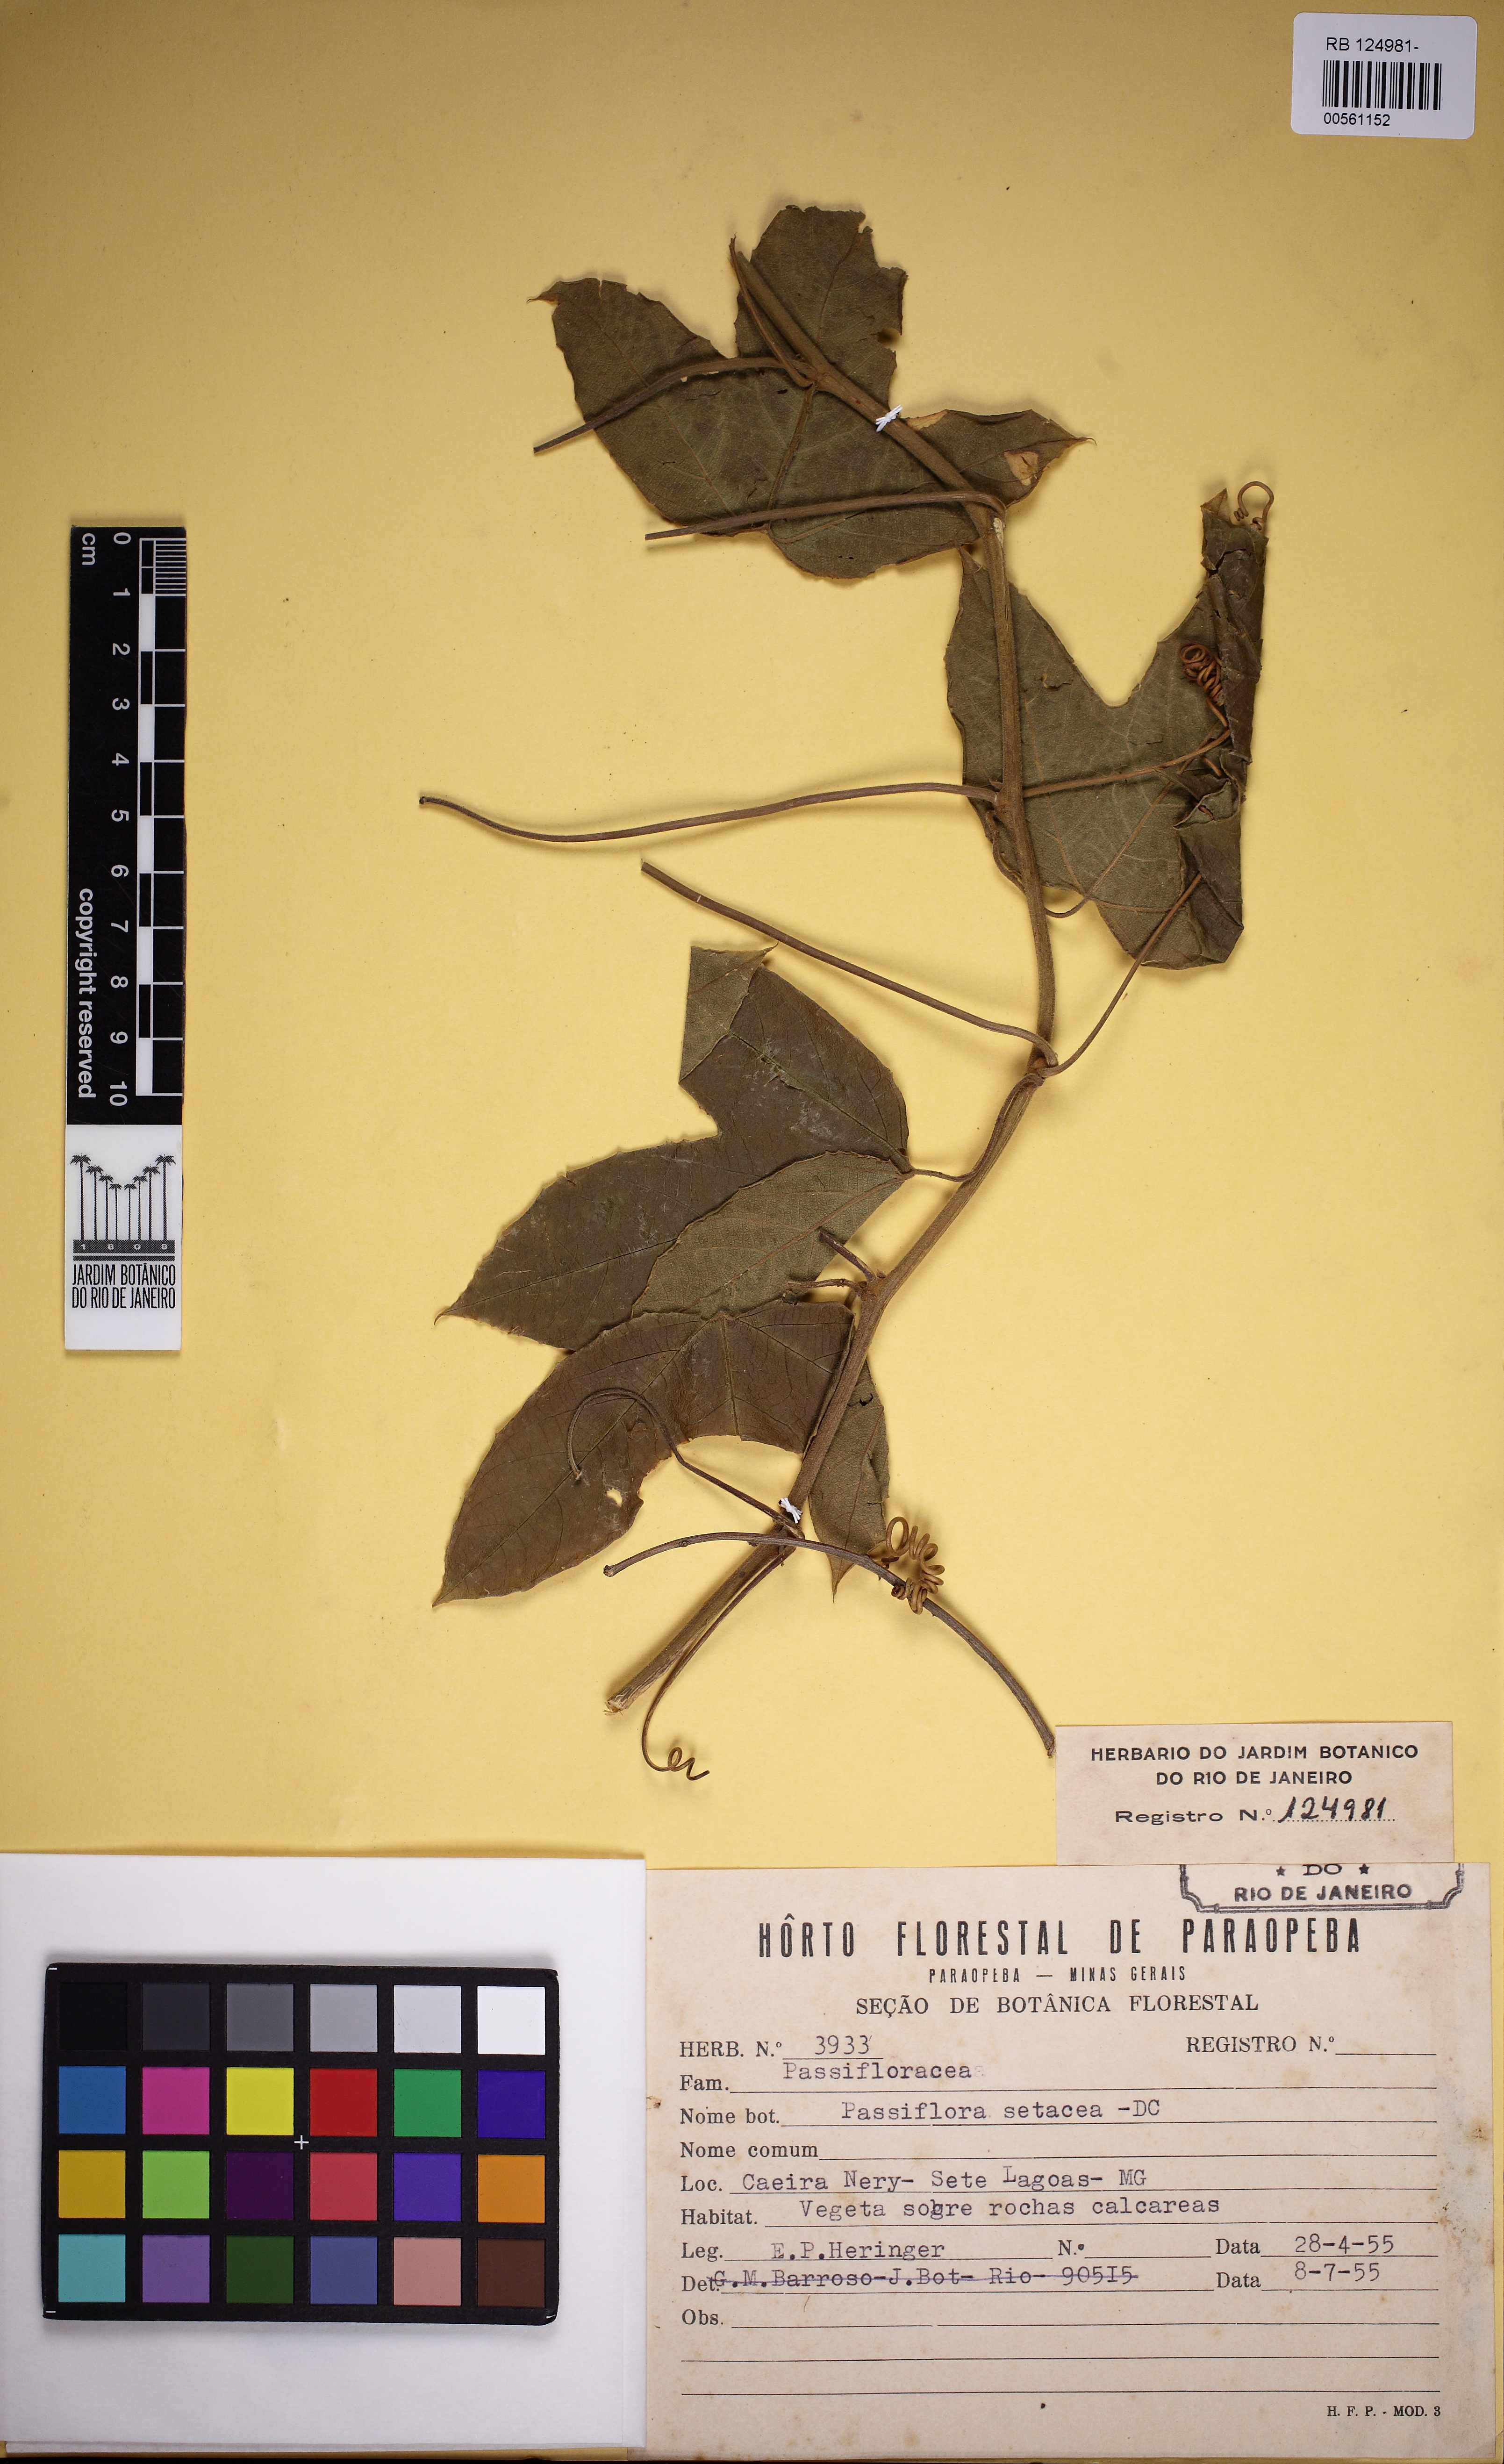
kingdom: Plantae
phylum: Tracheophyta
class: Magnoliopsida
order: Malpighiales
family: Passifloraceae
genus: Passiflora
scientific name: Passiflora setacea
